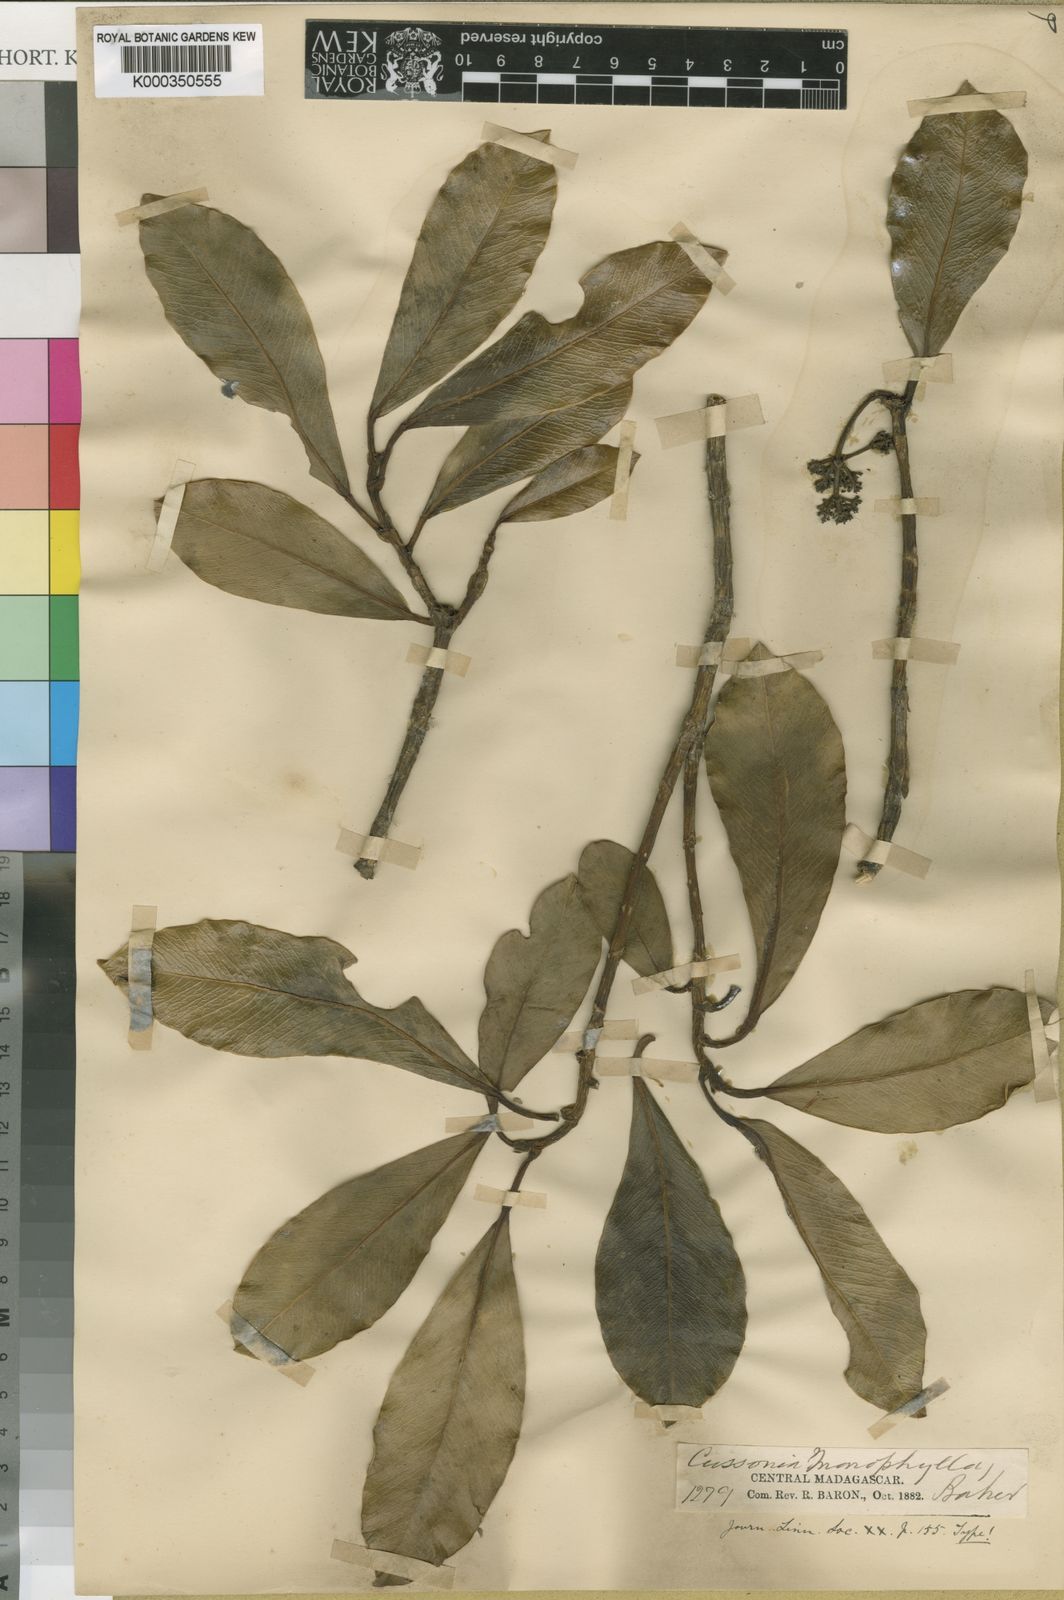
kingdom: Plantae
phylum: Tracheophyta
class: Magnoliopsida
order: Apiales
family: Araliaceae
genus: Astropanax
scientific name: Astropanax monophyllus
